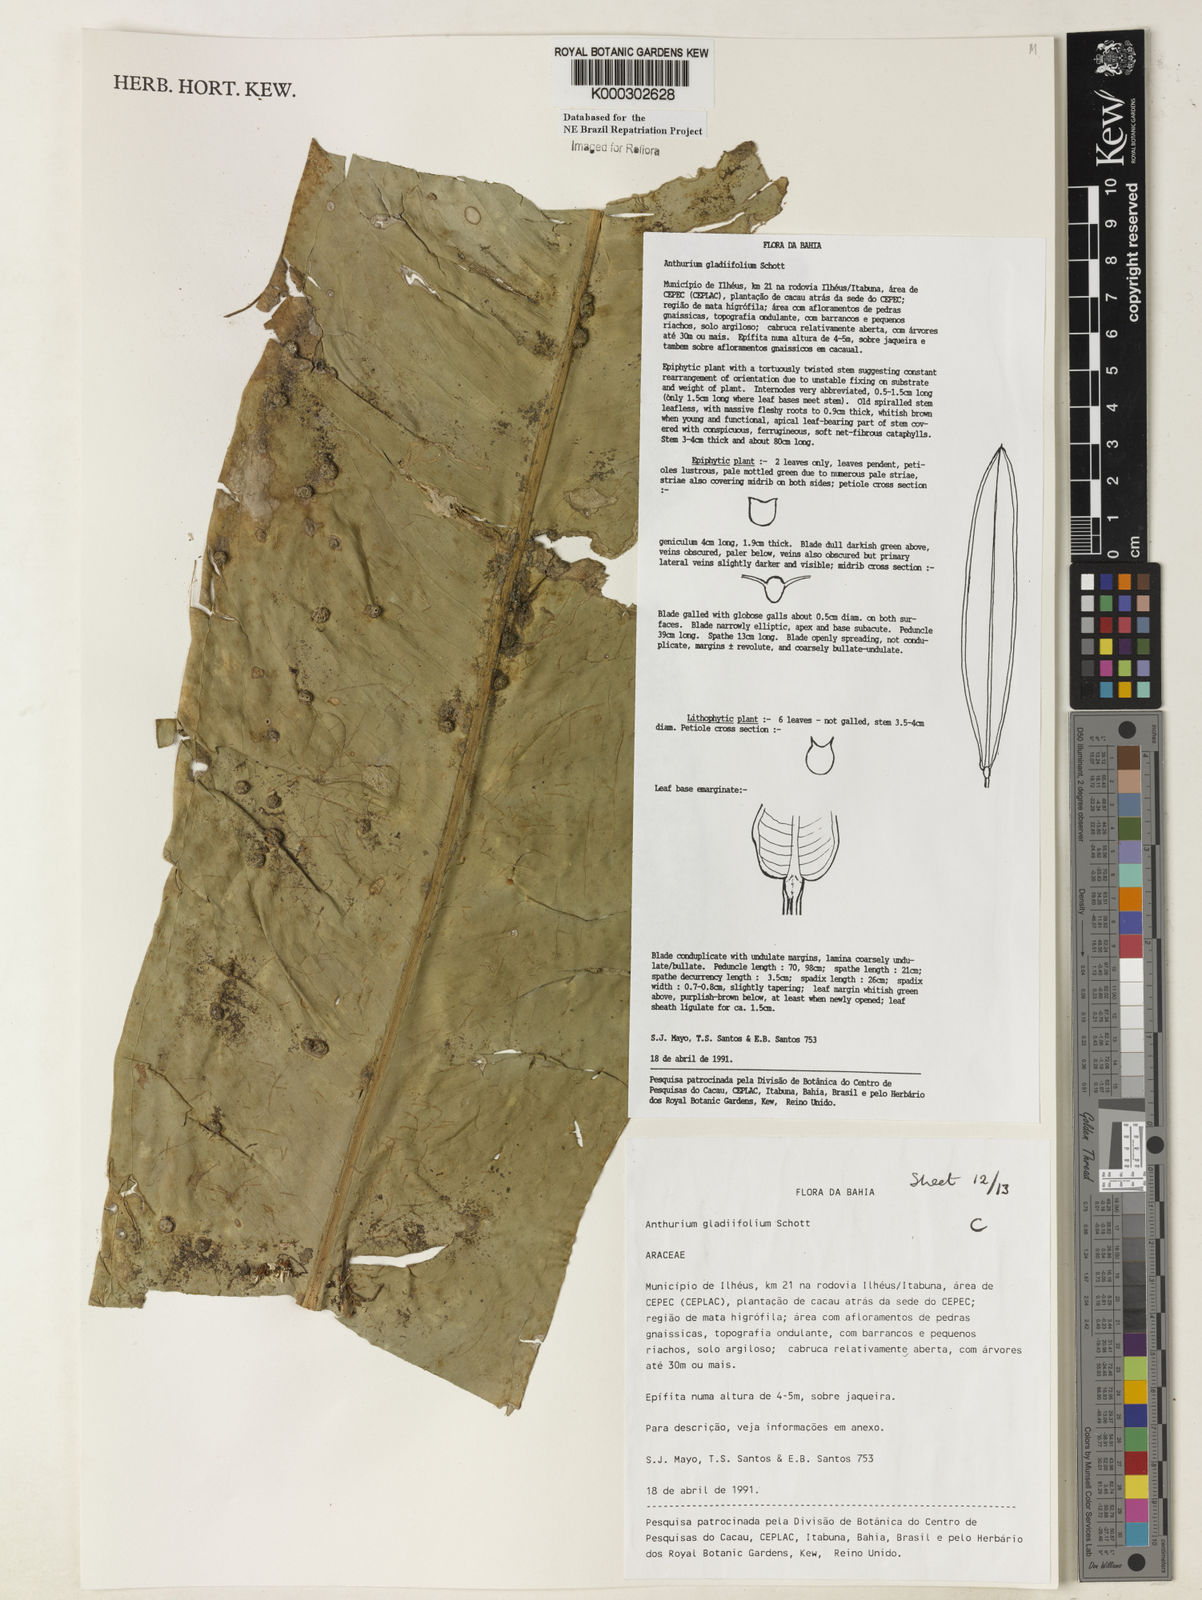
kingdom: Plantae
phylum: Tracheophyta
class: Liliopsida
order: Alismatales
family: Araceae
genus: Anthurium
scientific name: Anthurium gladiifolium
